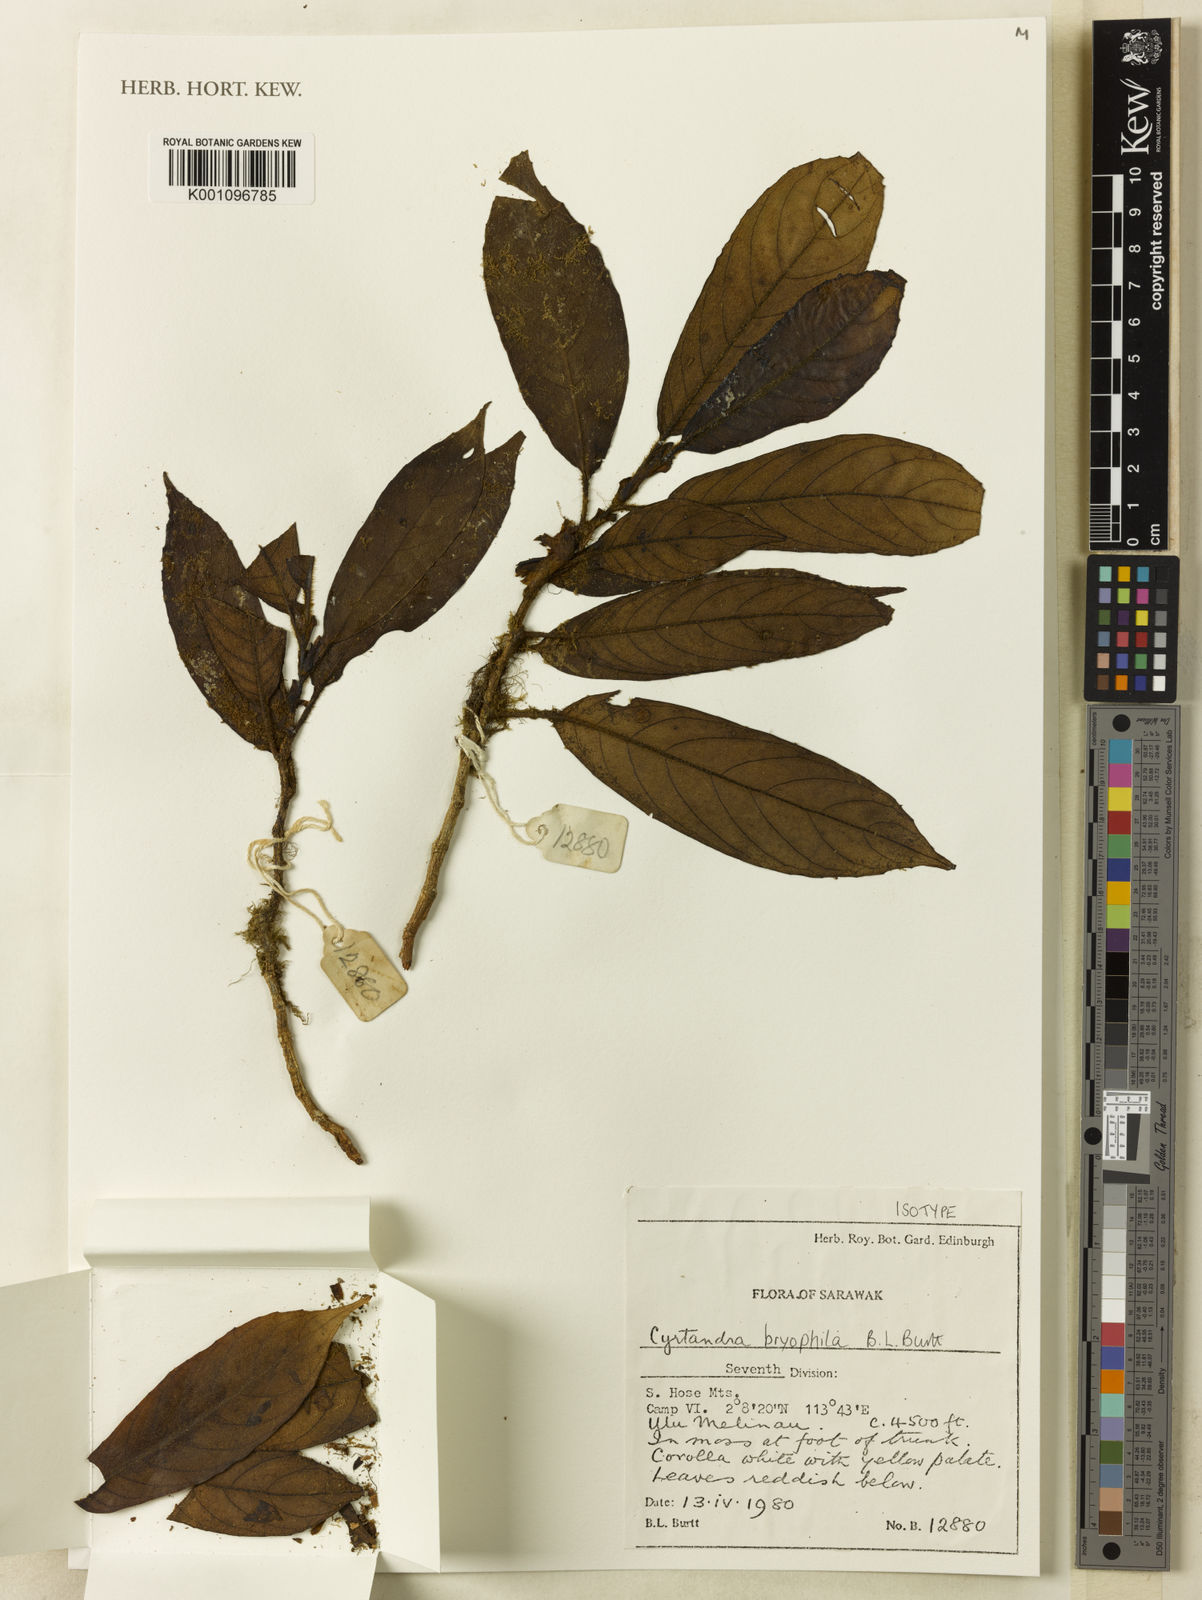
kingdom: Plantae
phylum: Tracheophyta
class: Magnoliopsida
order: Lamiales
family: Gesneriaceae
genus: Cyrtandra
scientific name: Cyrtandra bryophila
